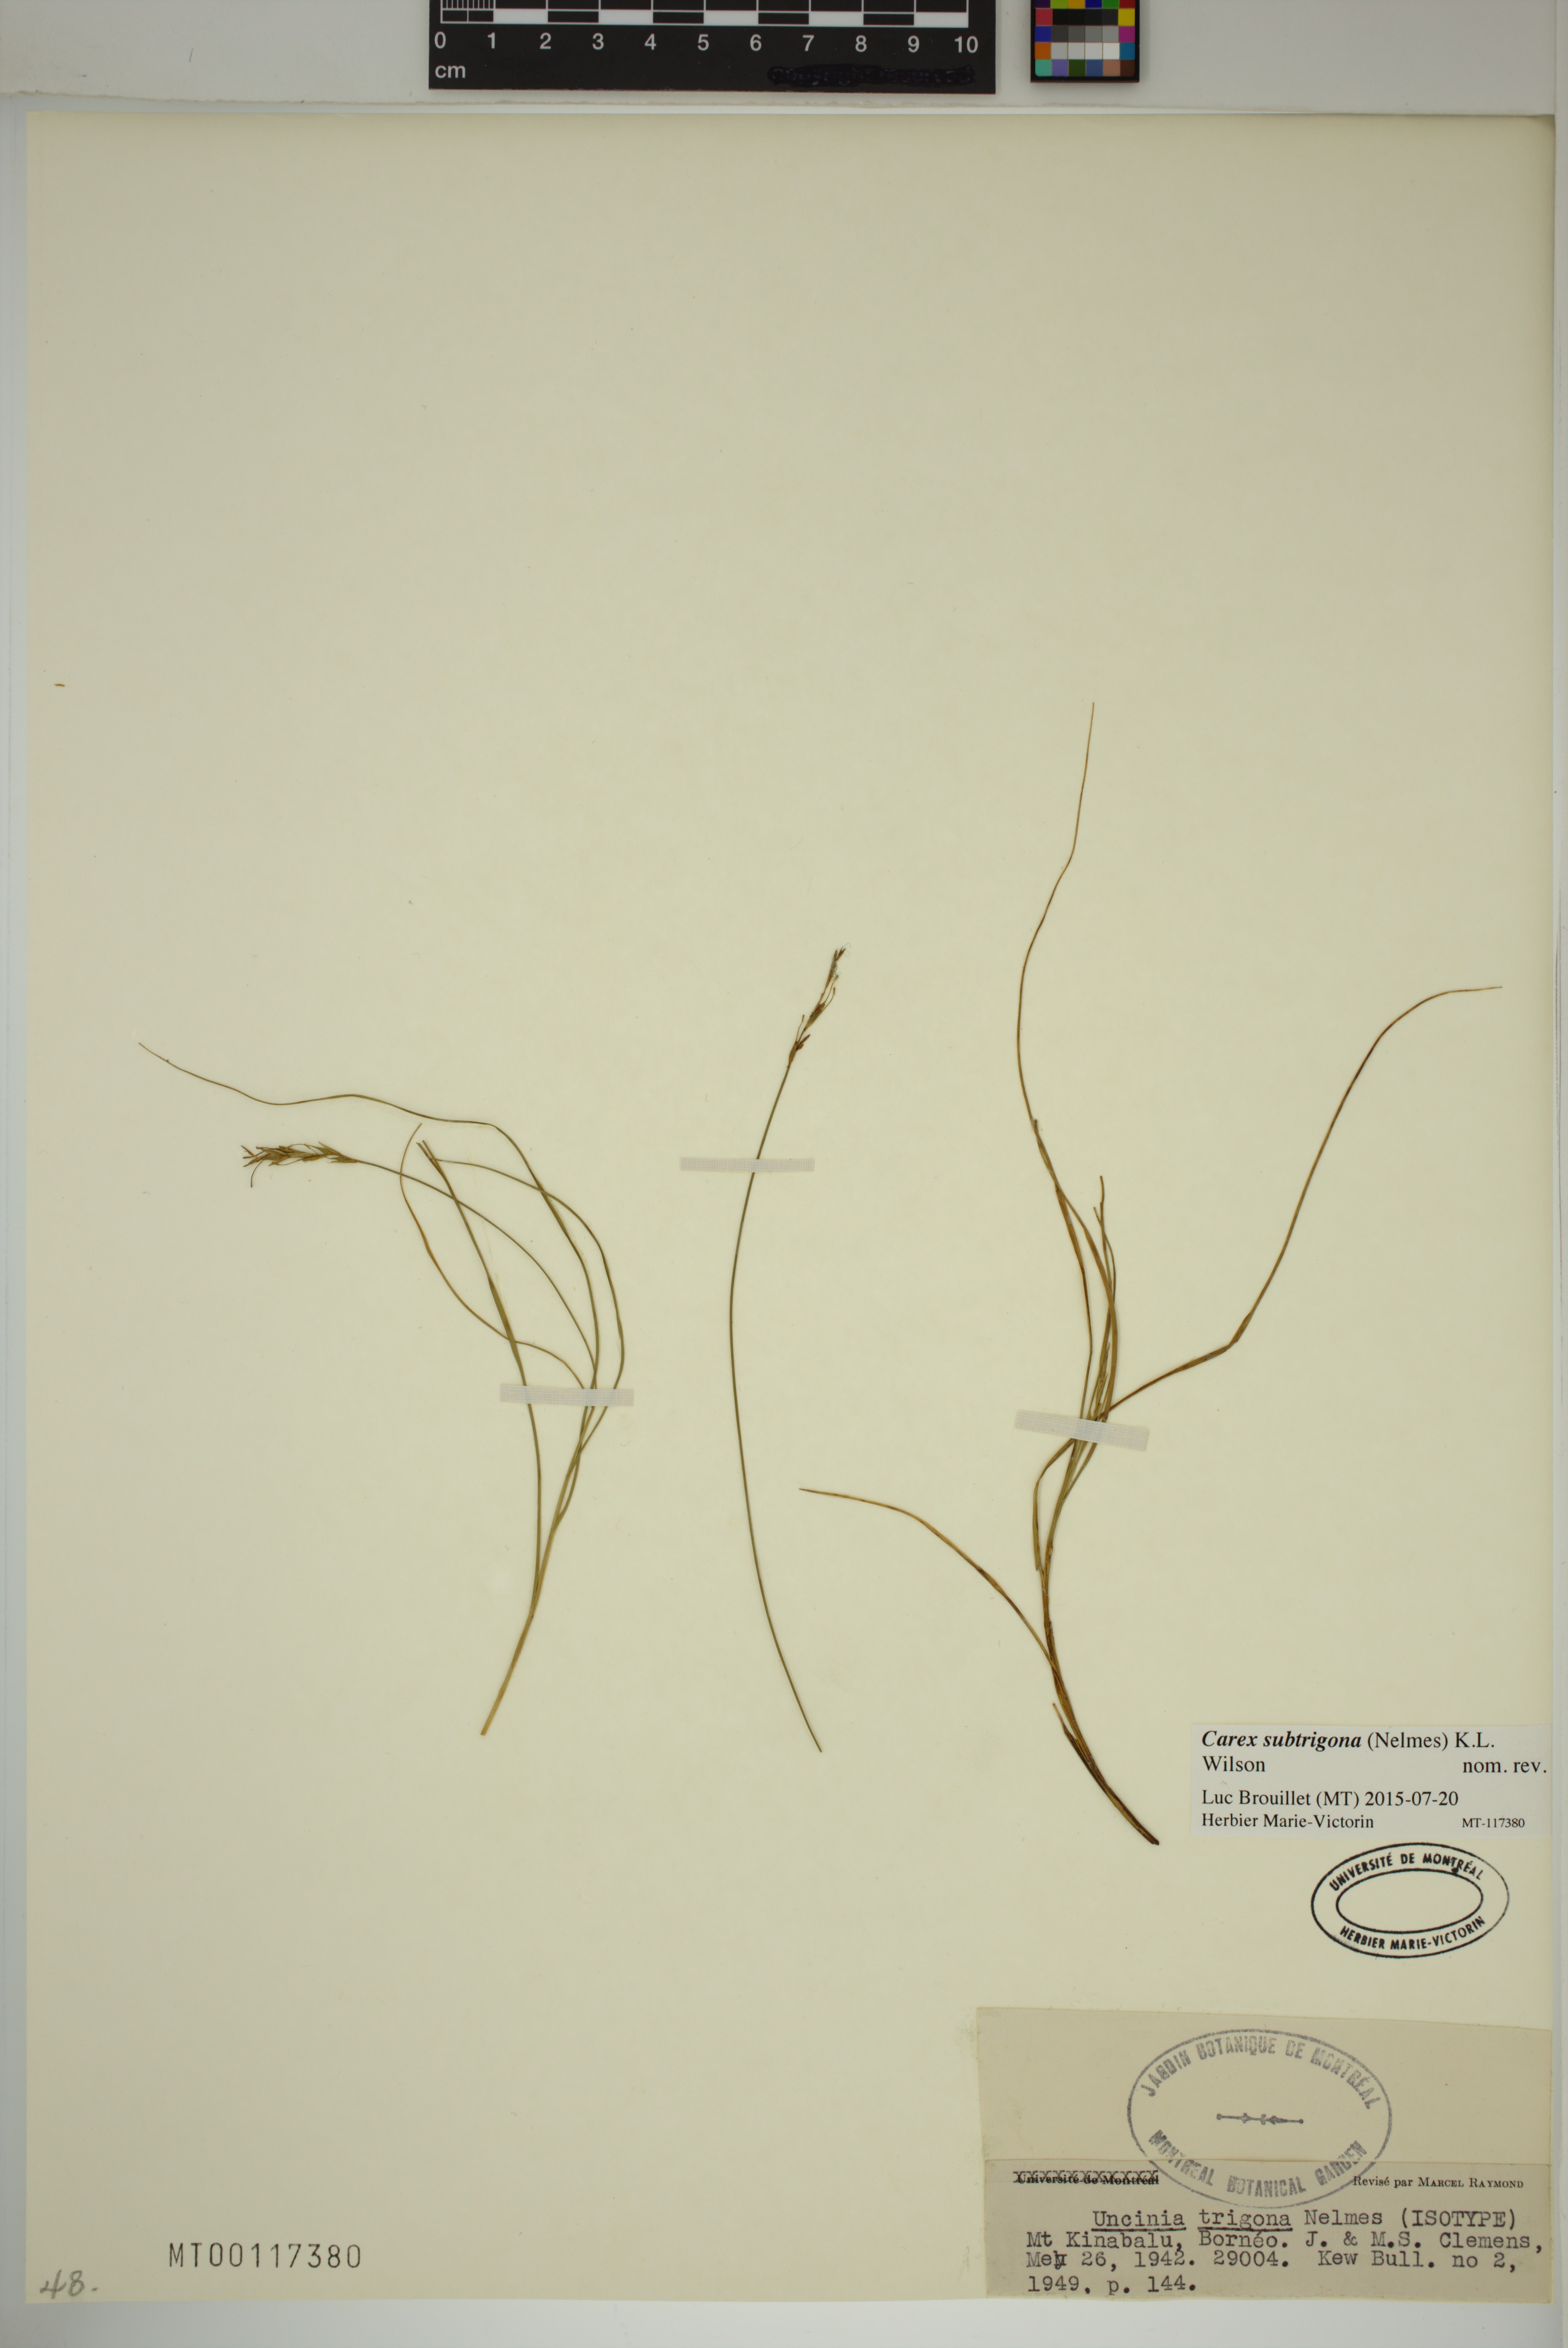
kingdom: Plantae
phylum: Tracheophyta
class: Liliopsida
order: Poales
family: Cyperaceae
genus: Carex
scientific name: Carex subtrigona
